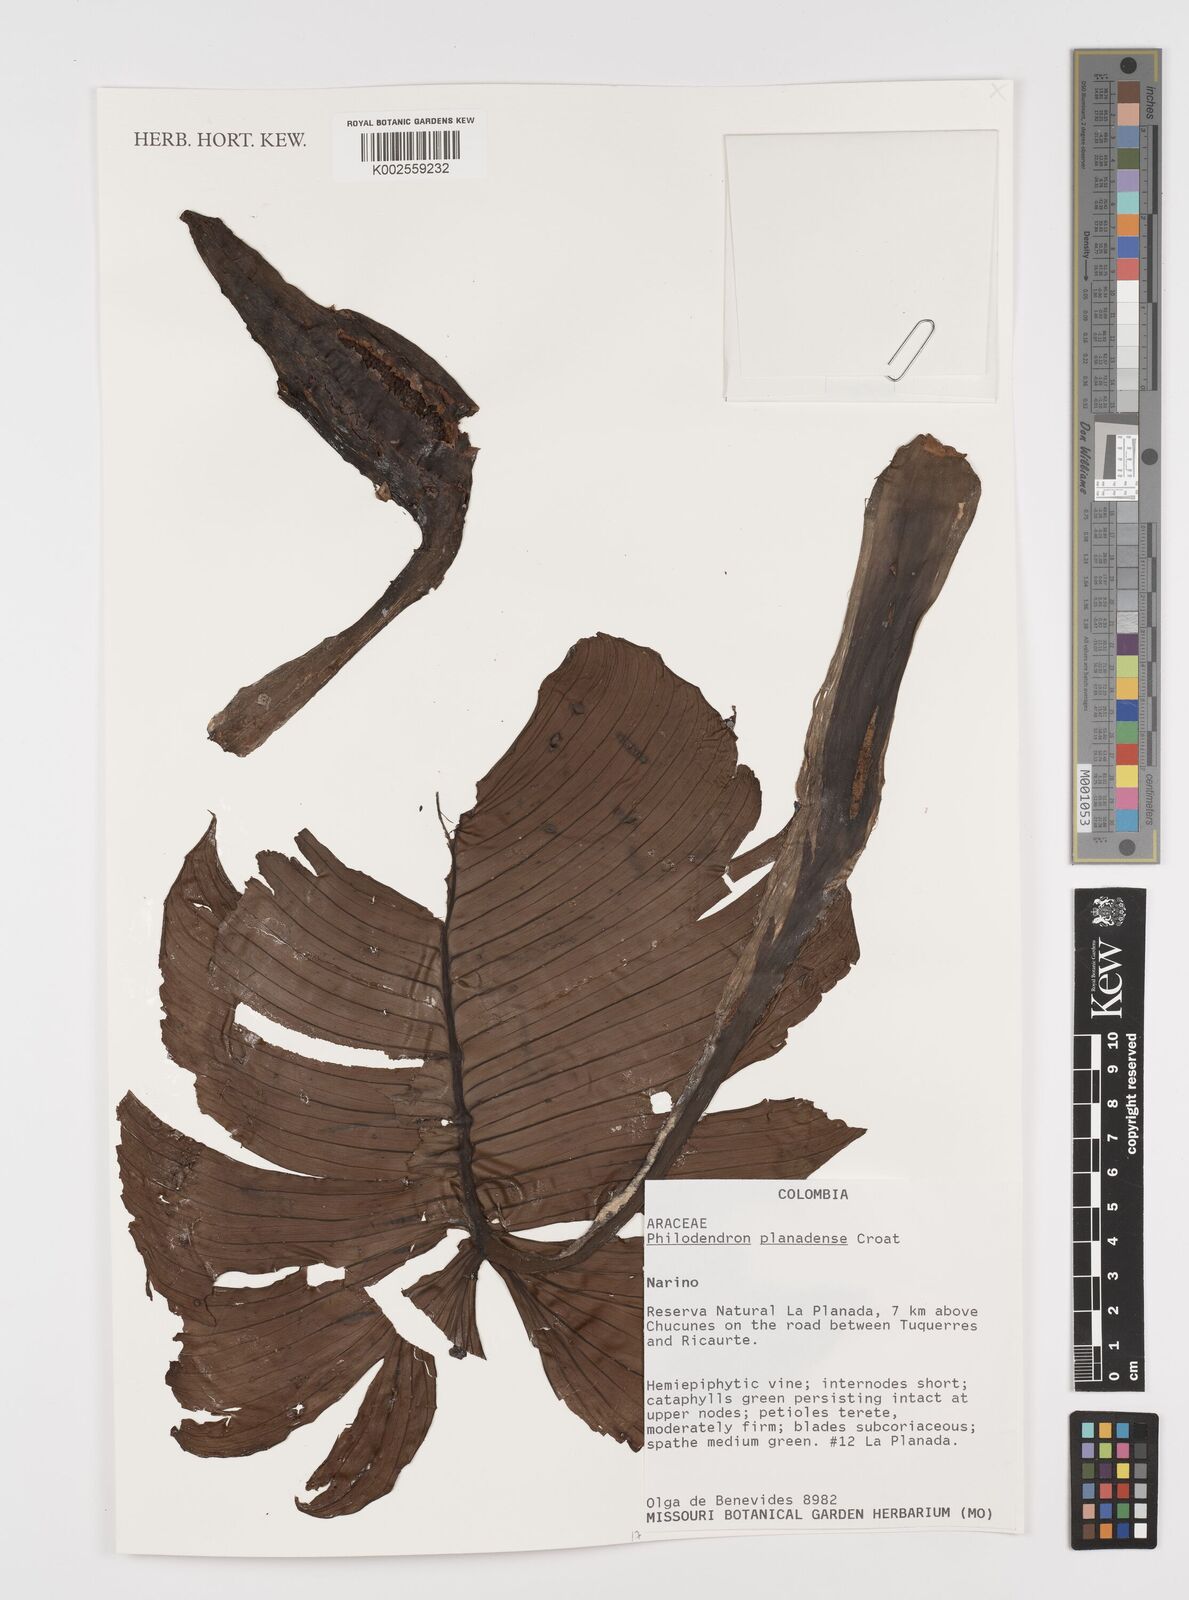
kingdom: Plantae
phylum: Tracheophyta
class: Liliopsida
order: Alismatales
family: Araceae
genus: Philodendron
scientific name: Philodendron planadense
